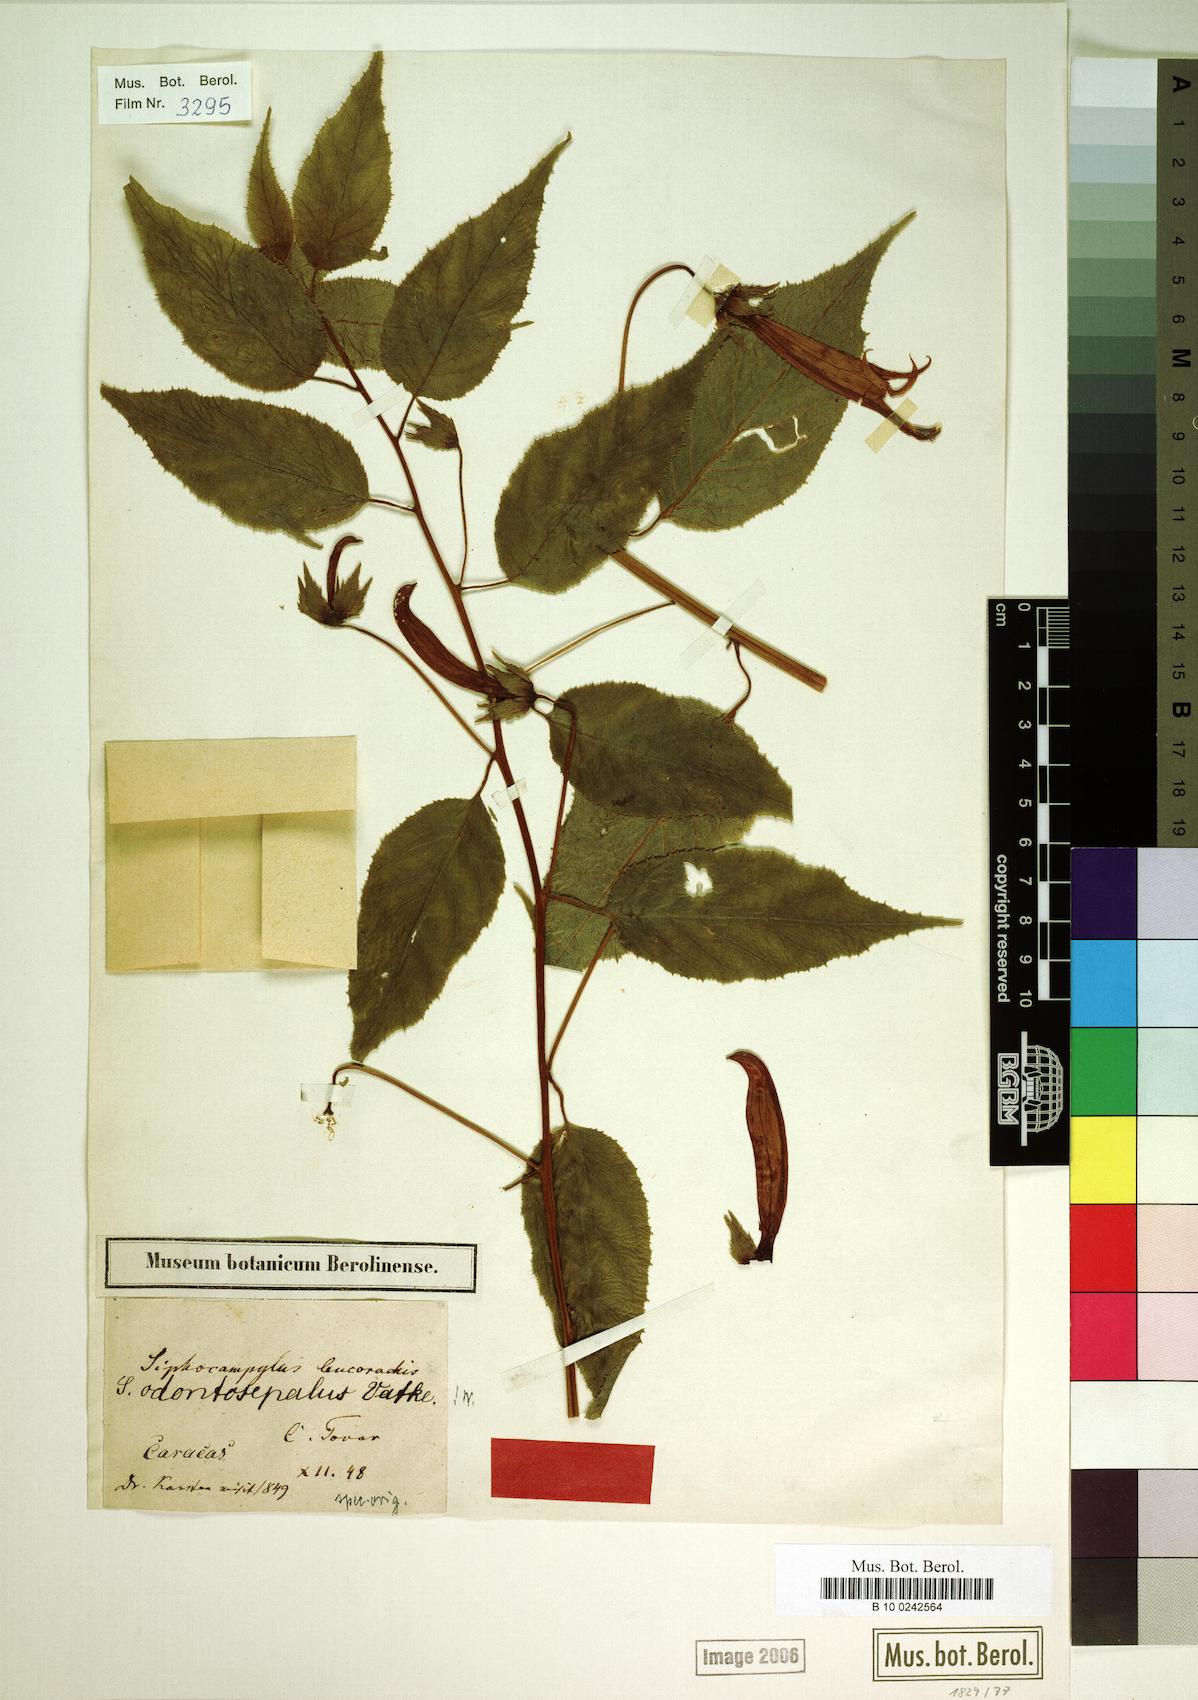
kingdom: Plantae
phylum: Tracheophyta
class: Magnoliopsida
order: Asterales
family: Campanulaceae
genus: Siphocampylus
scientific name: Siphocampylus odontosepalus
